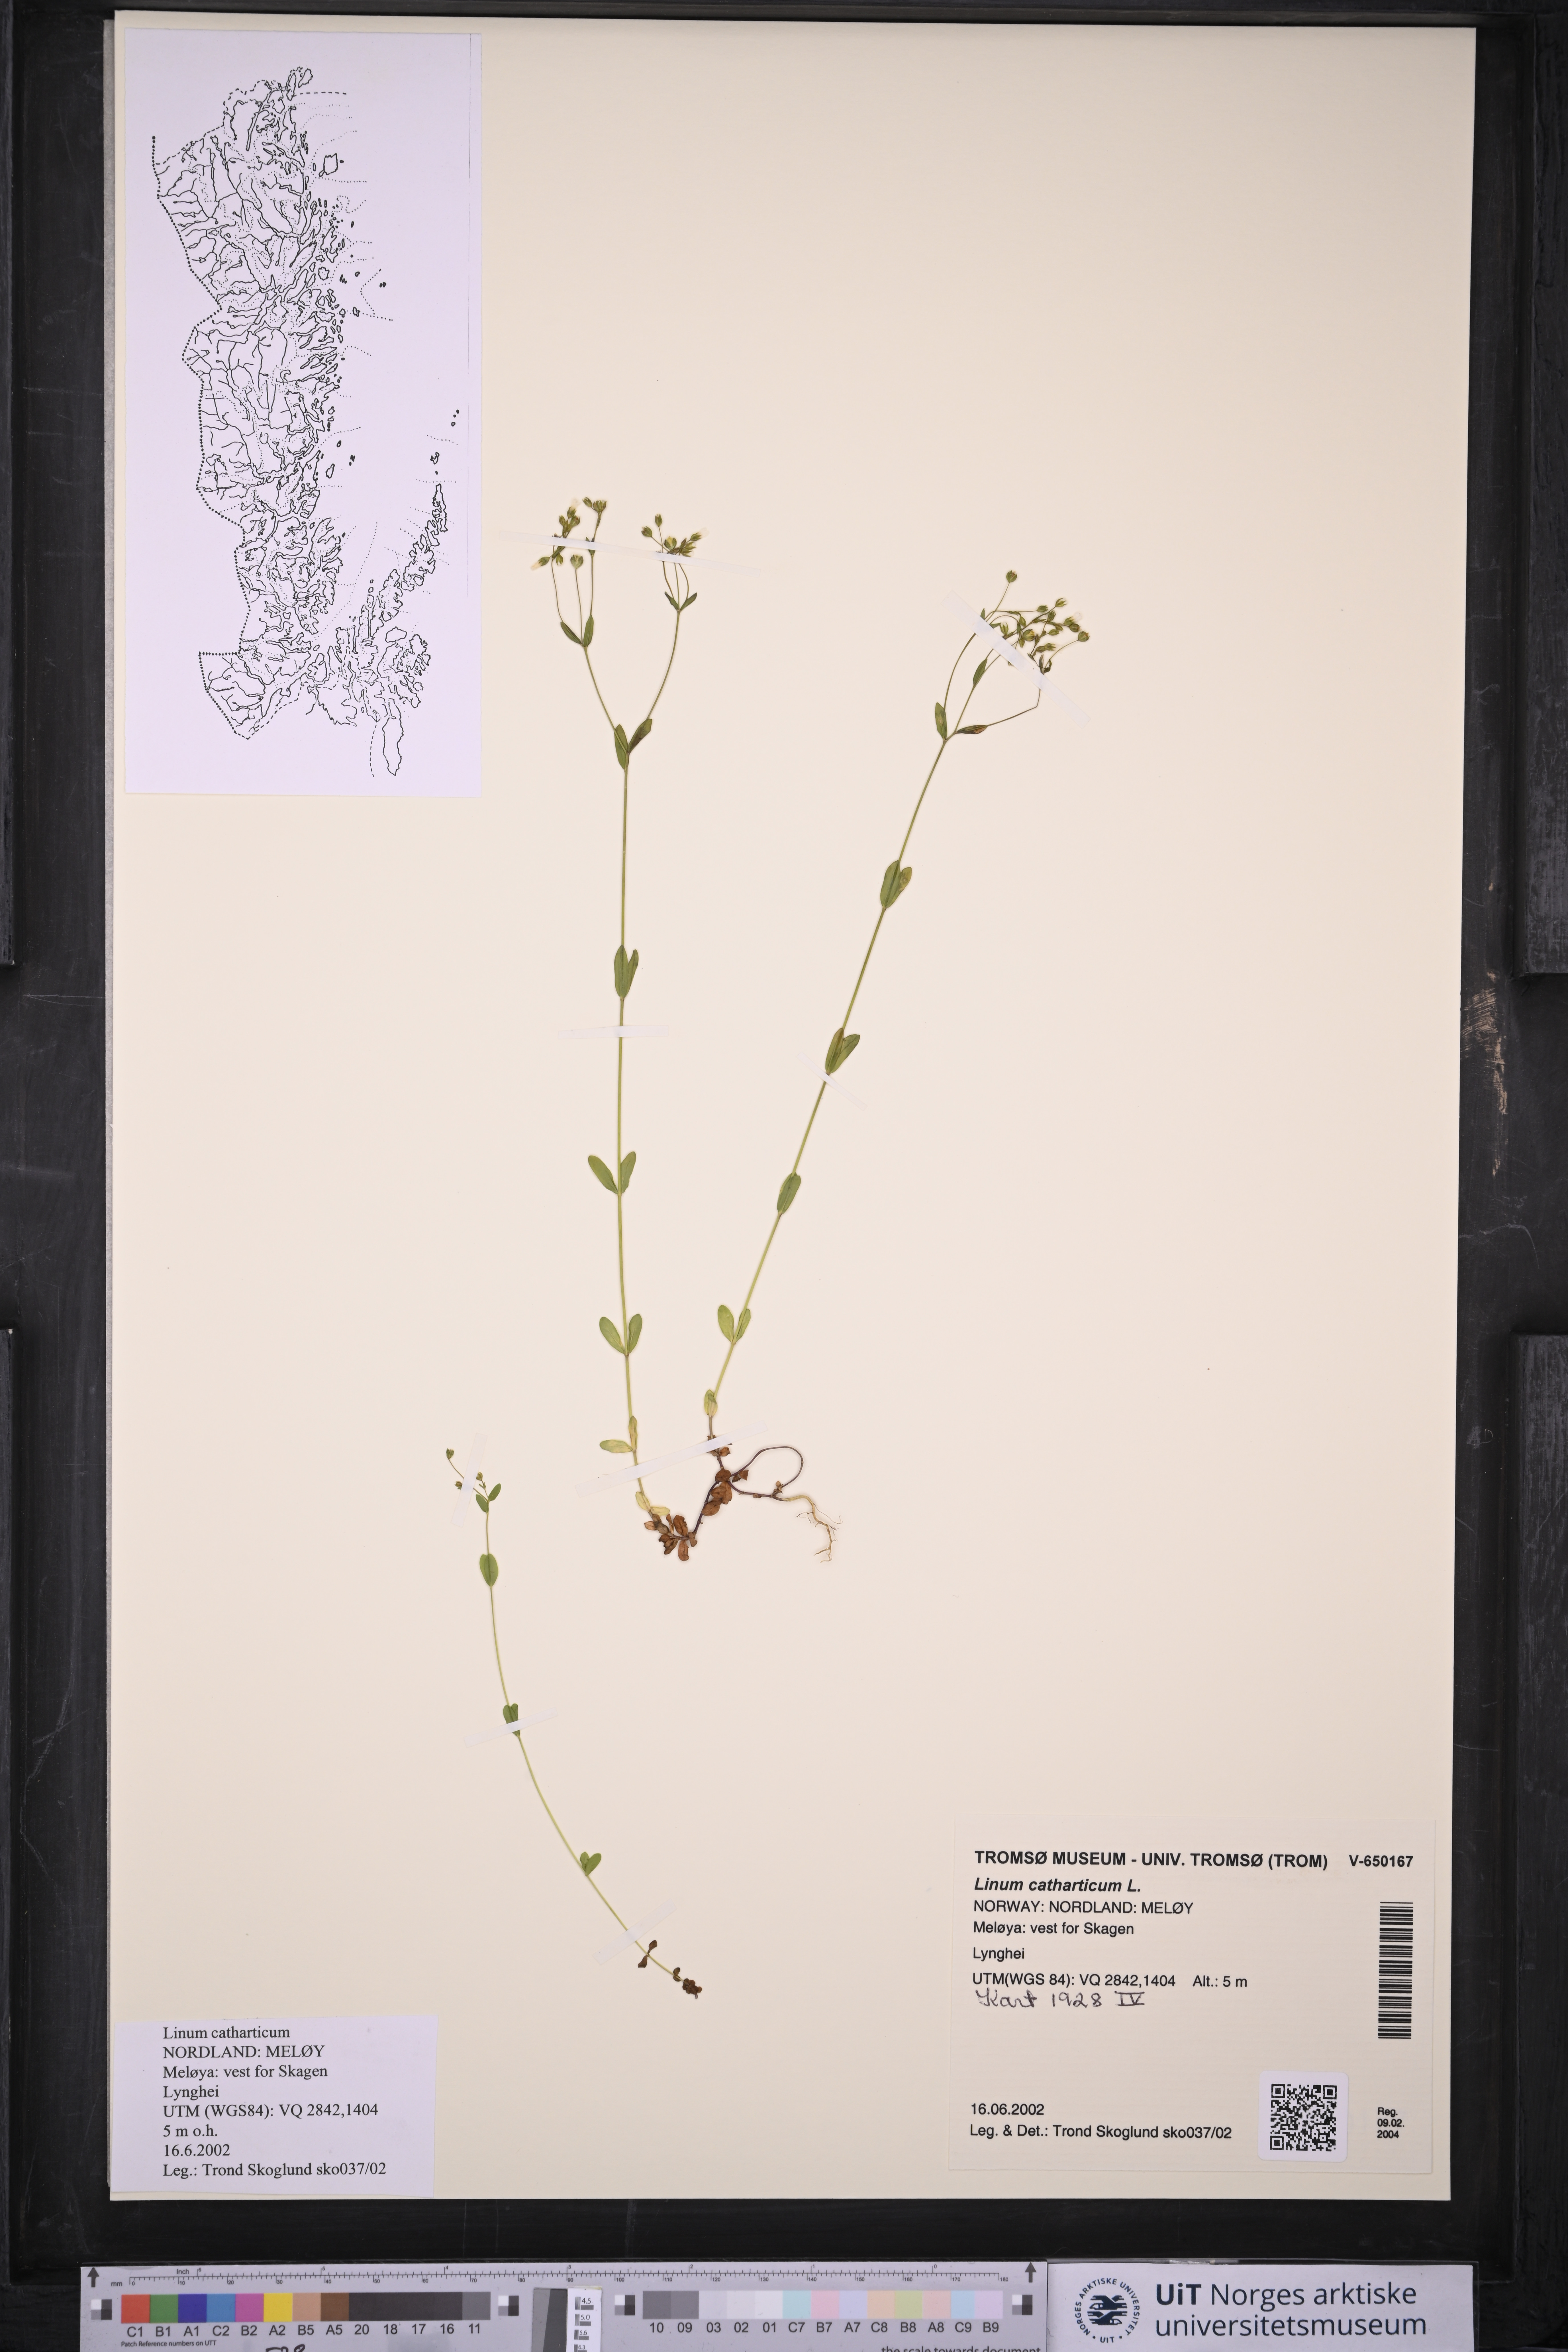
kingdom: Plantae
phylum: Tracheophyta
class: Magnoliopsida
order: Malpighiales
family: Linaceae
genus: Linum
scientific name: Linum catharticum
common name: Fairy flax
